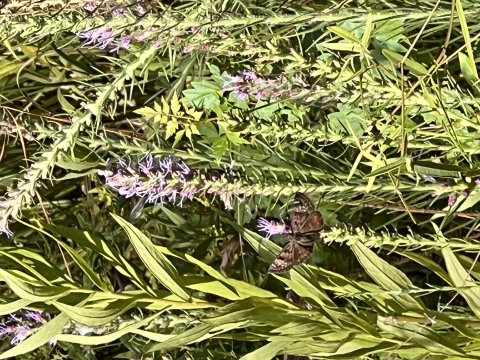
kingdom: Animalia
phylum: Arthropoda
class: Insecta
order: Lepidoptera
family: Hesperiidae
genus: Gesta
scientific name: Gesta
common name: Horace's Duskywing
